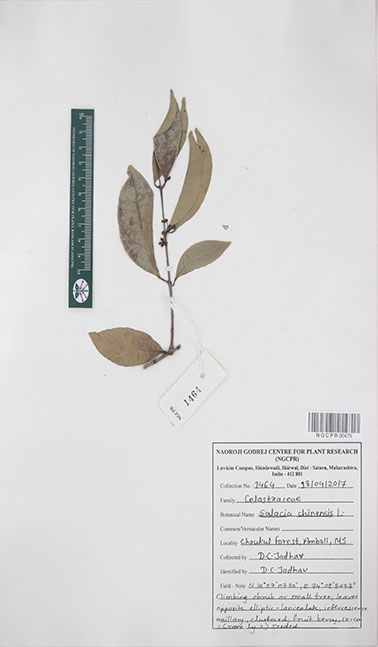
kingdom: Plantae
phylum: Tracheophyta
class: Magnoliopsida
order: Celastrales
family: Celastraceae
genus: Salacia
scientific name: Salacia chinensis
